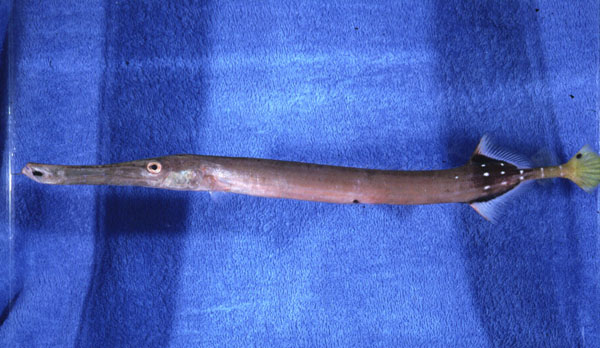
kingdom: Animalia
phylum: Chordata
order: Syngnathiformes
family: Aulostomidae
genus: Aulostomus
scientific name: Aulostomus chinensis
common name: Chinese trumpetfish
